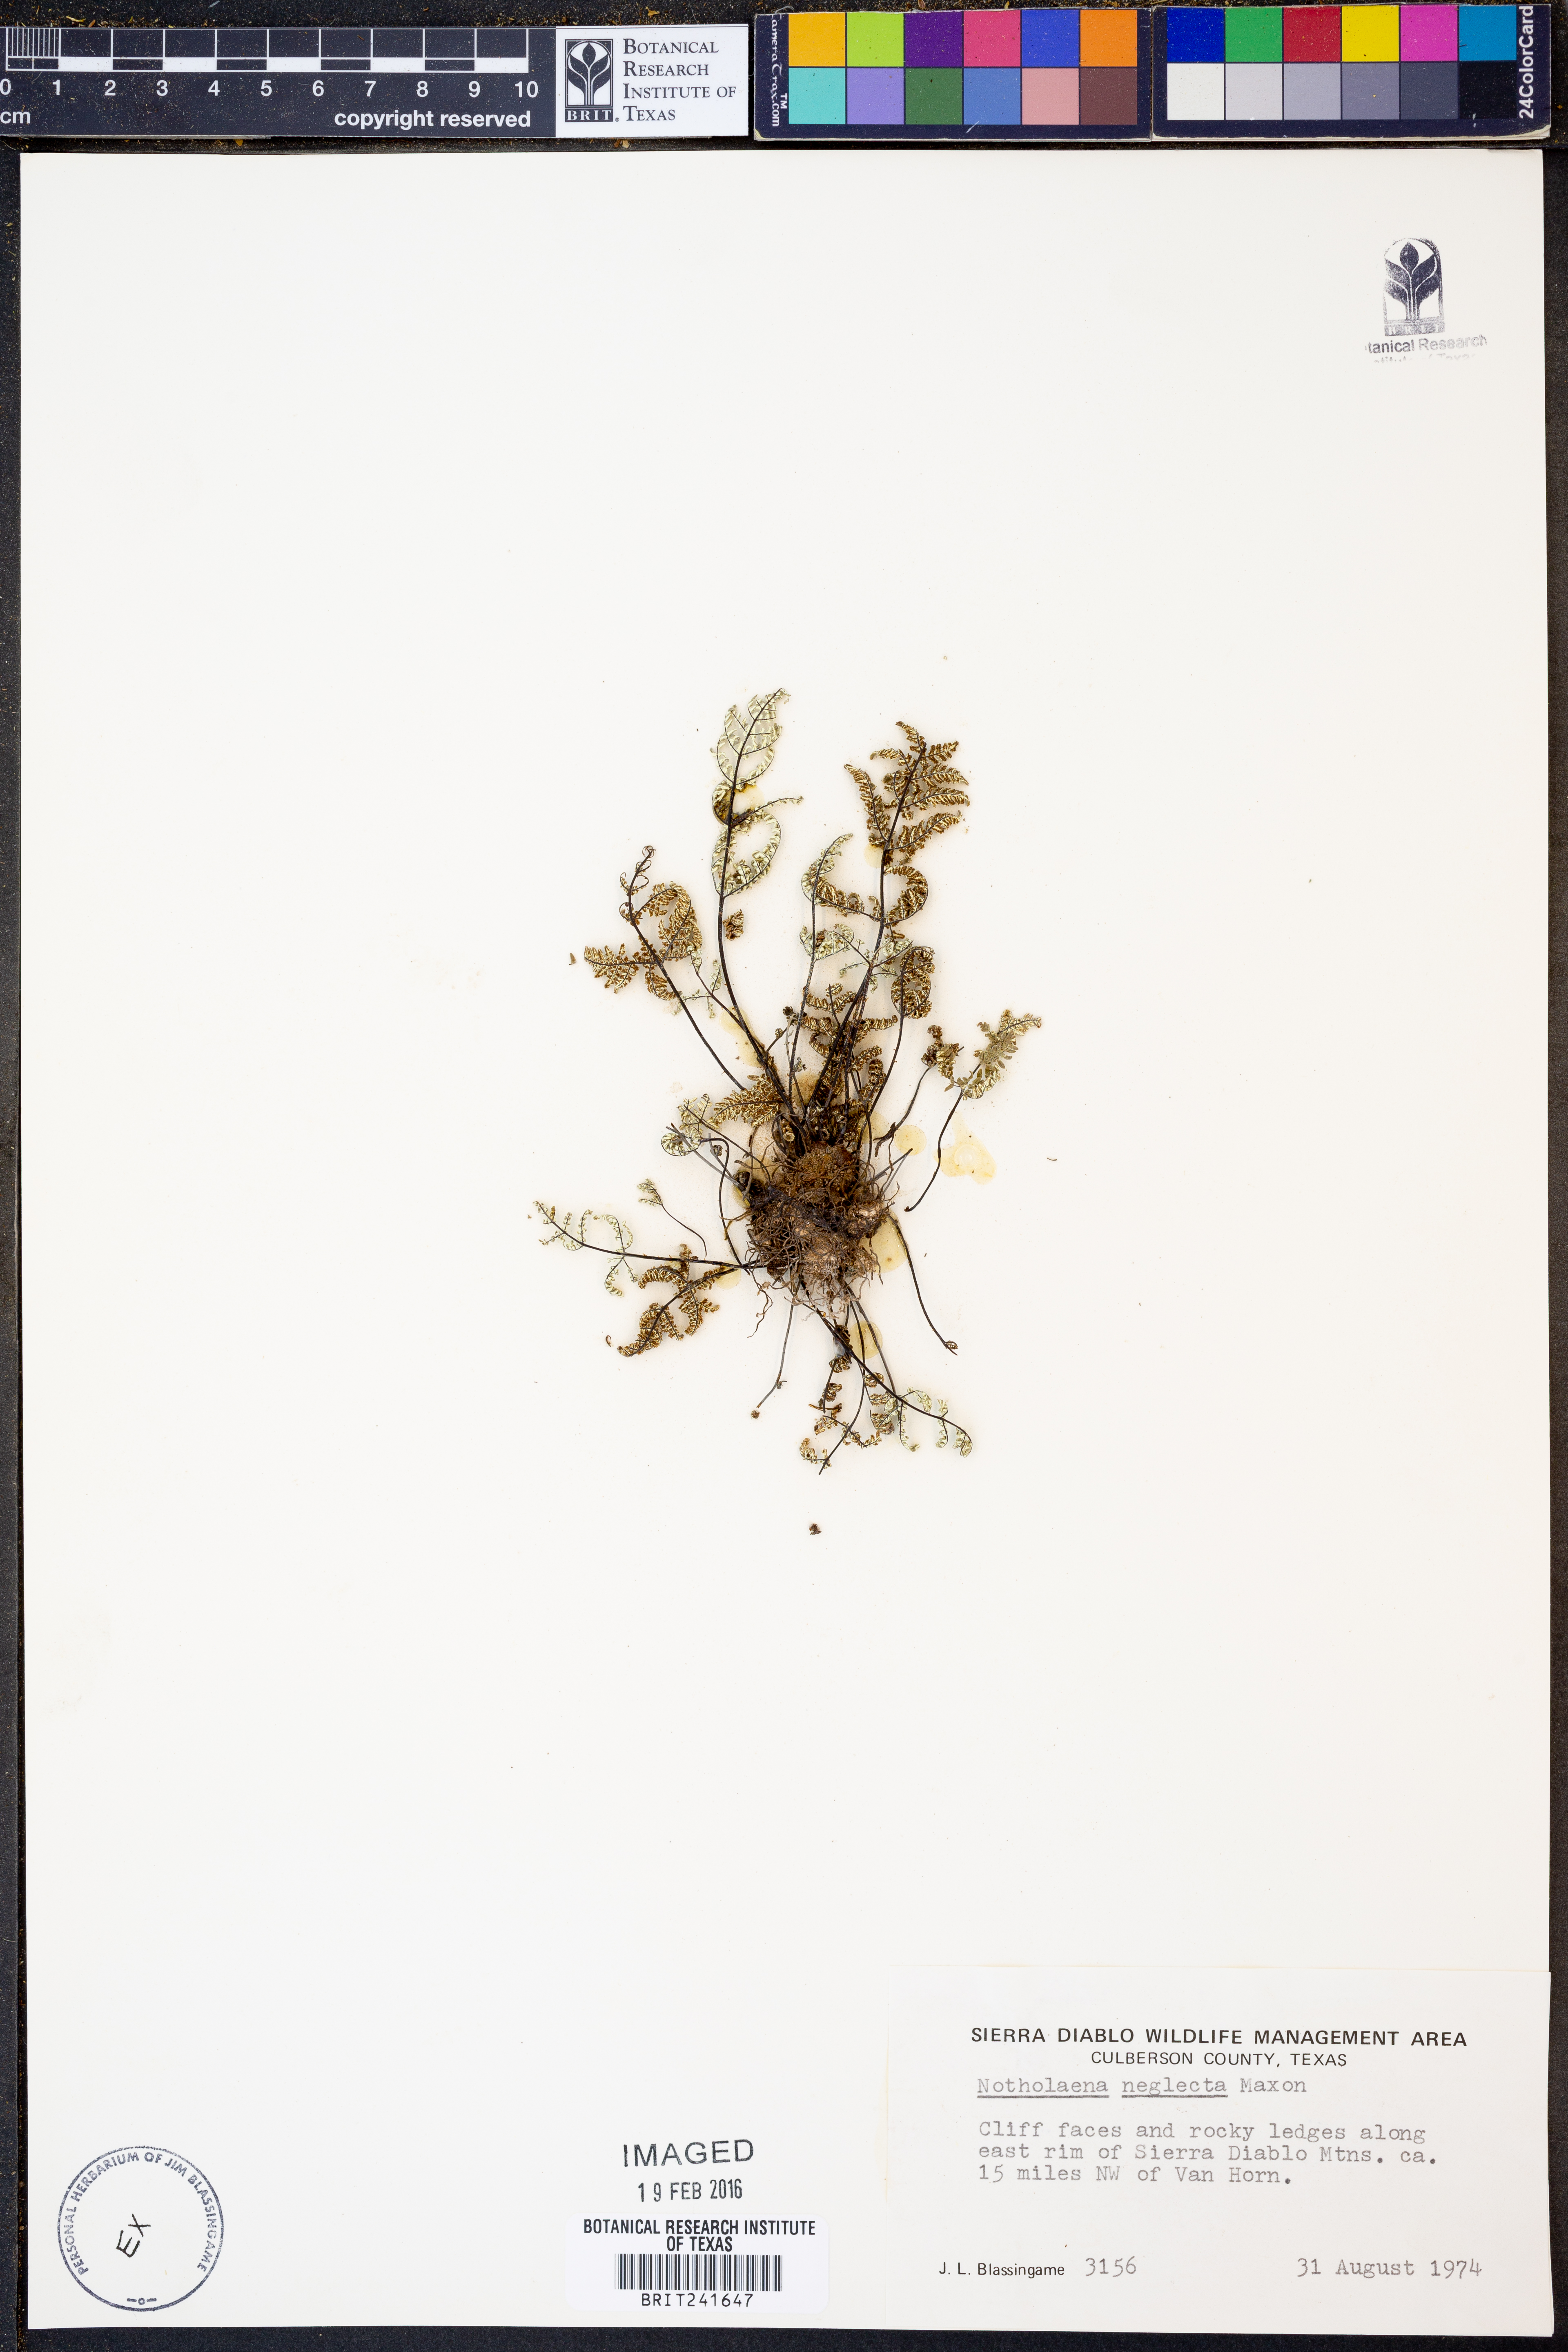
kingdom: Plantae
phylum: Tracheophyta
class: Polypodiopsida
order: Polypodiales
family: Pteridaceae
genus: Notholaena
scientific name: Notholaena neglecta
